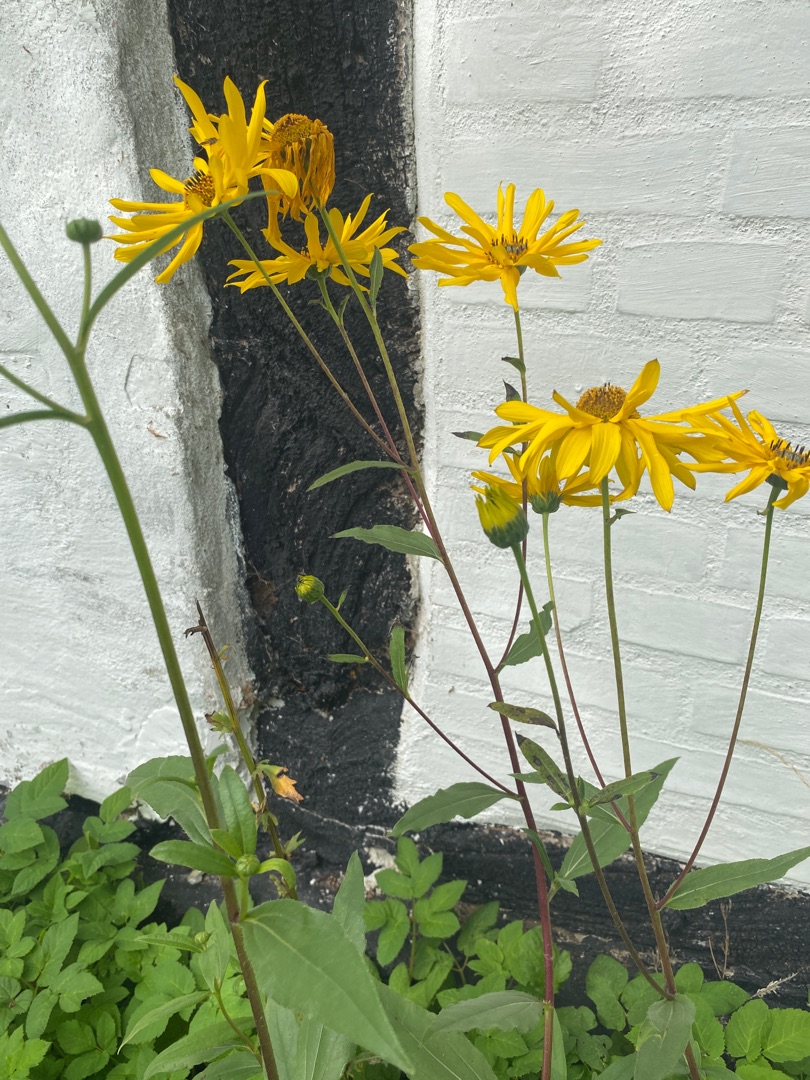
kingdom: Plantae
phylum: Tracheophyta
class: Magnoliopsida
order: Asterales
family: Asteraceae
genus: Helianthus
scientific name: Helianthus
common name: Solsikkeslægten
